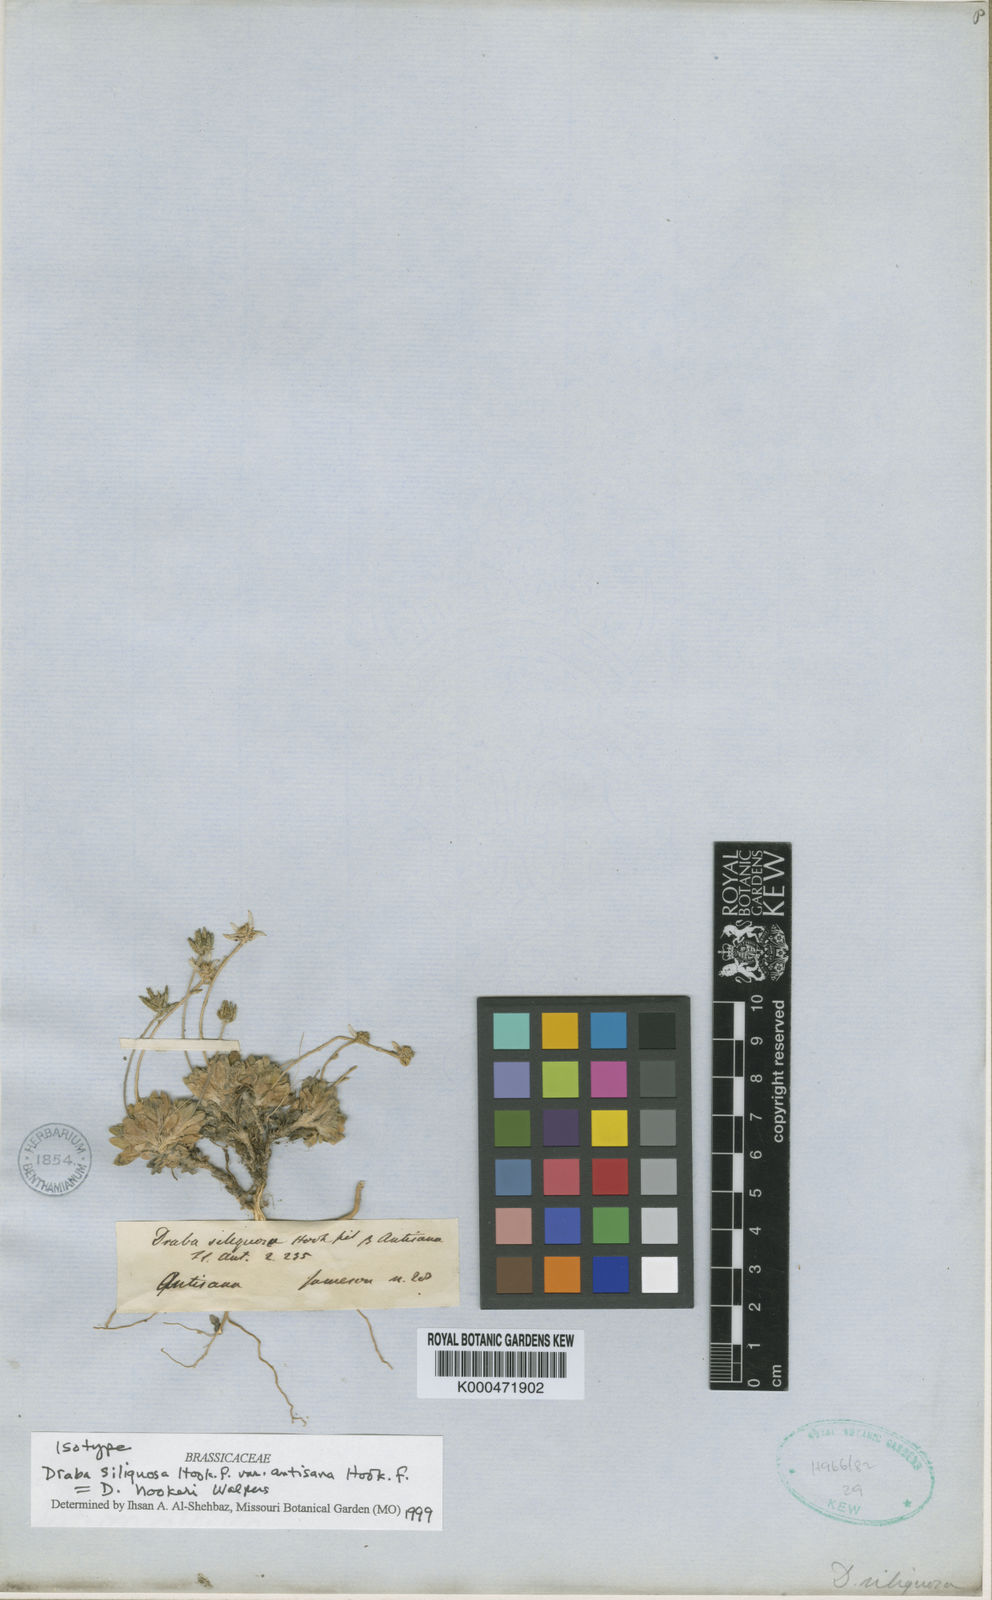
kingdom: Plantae
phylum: Tracheophyta
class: Magnoliopsida
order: Brassicales
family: Brassicaceae
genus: Draba
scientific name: Draba hookeri
